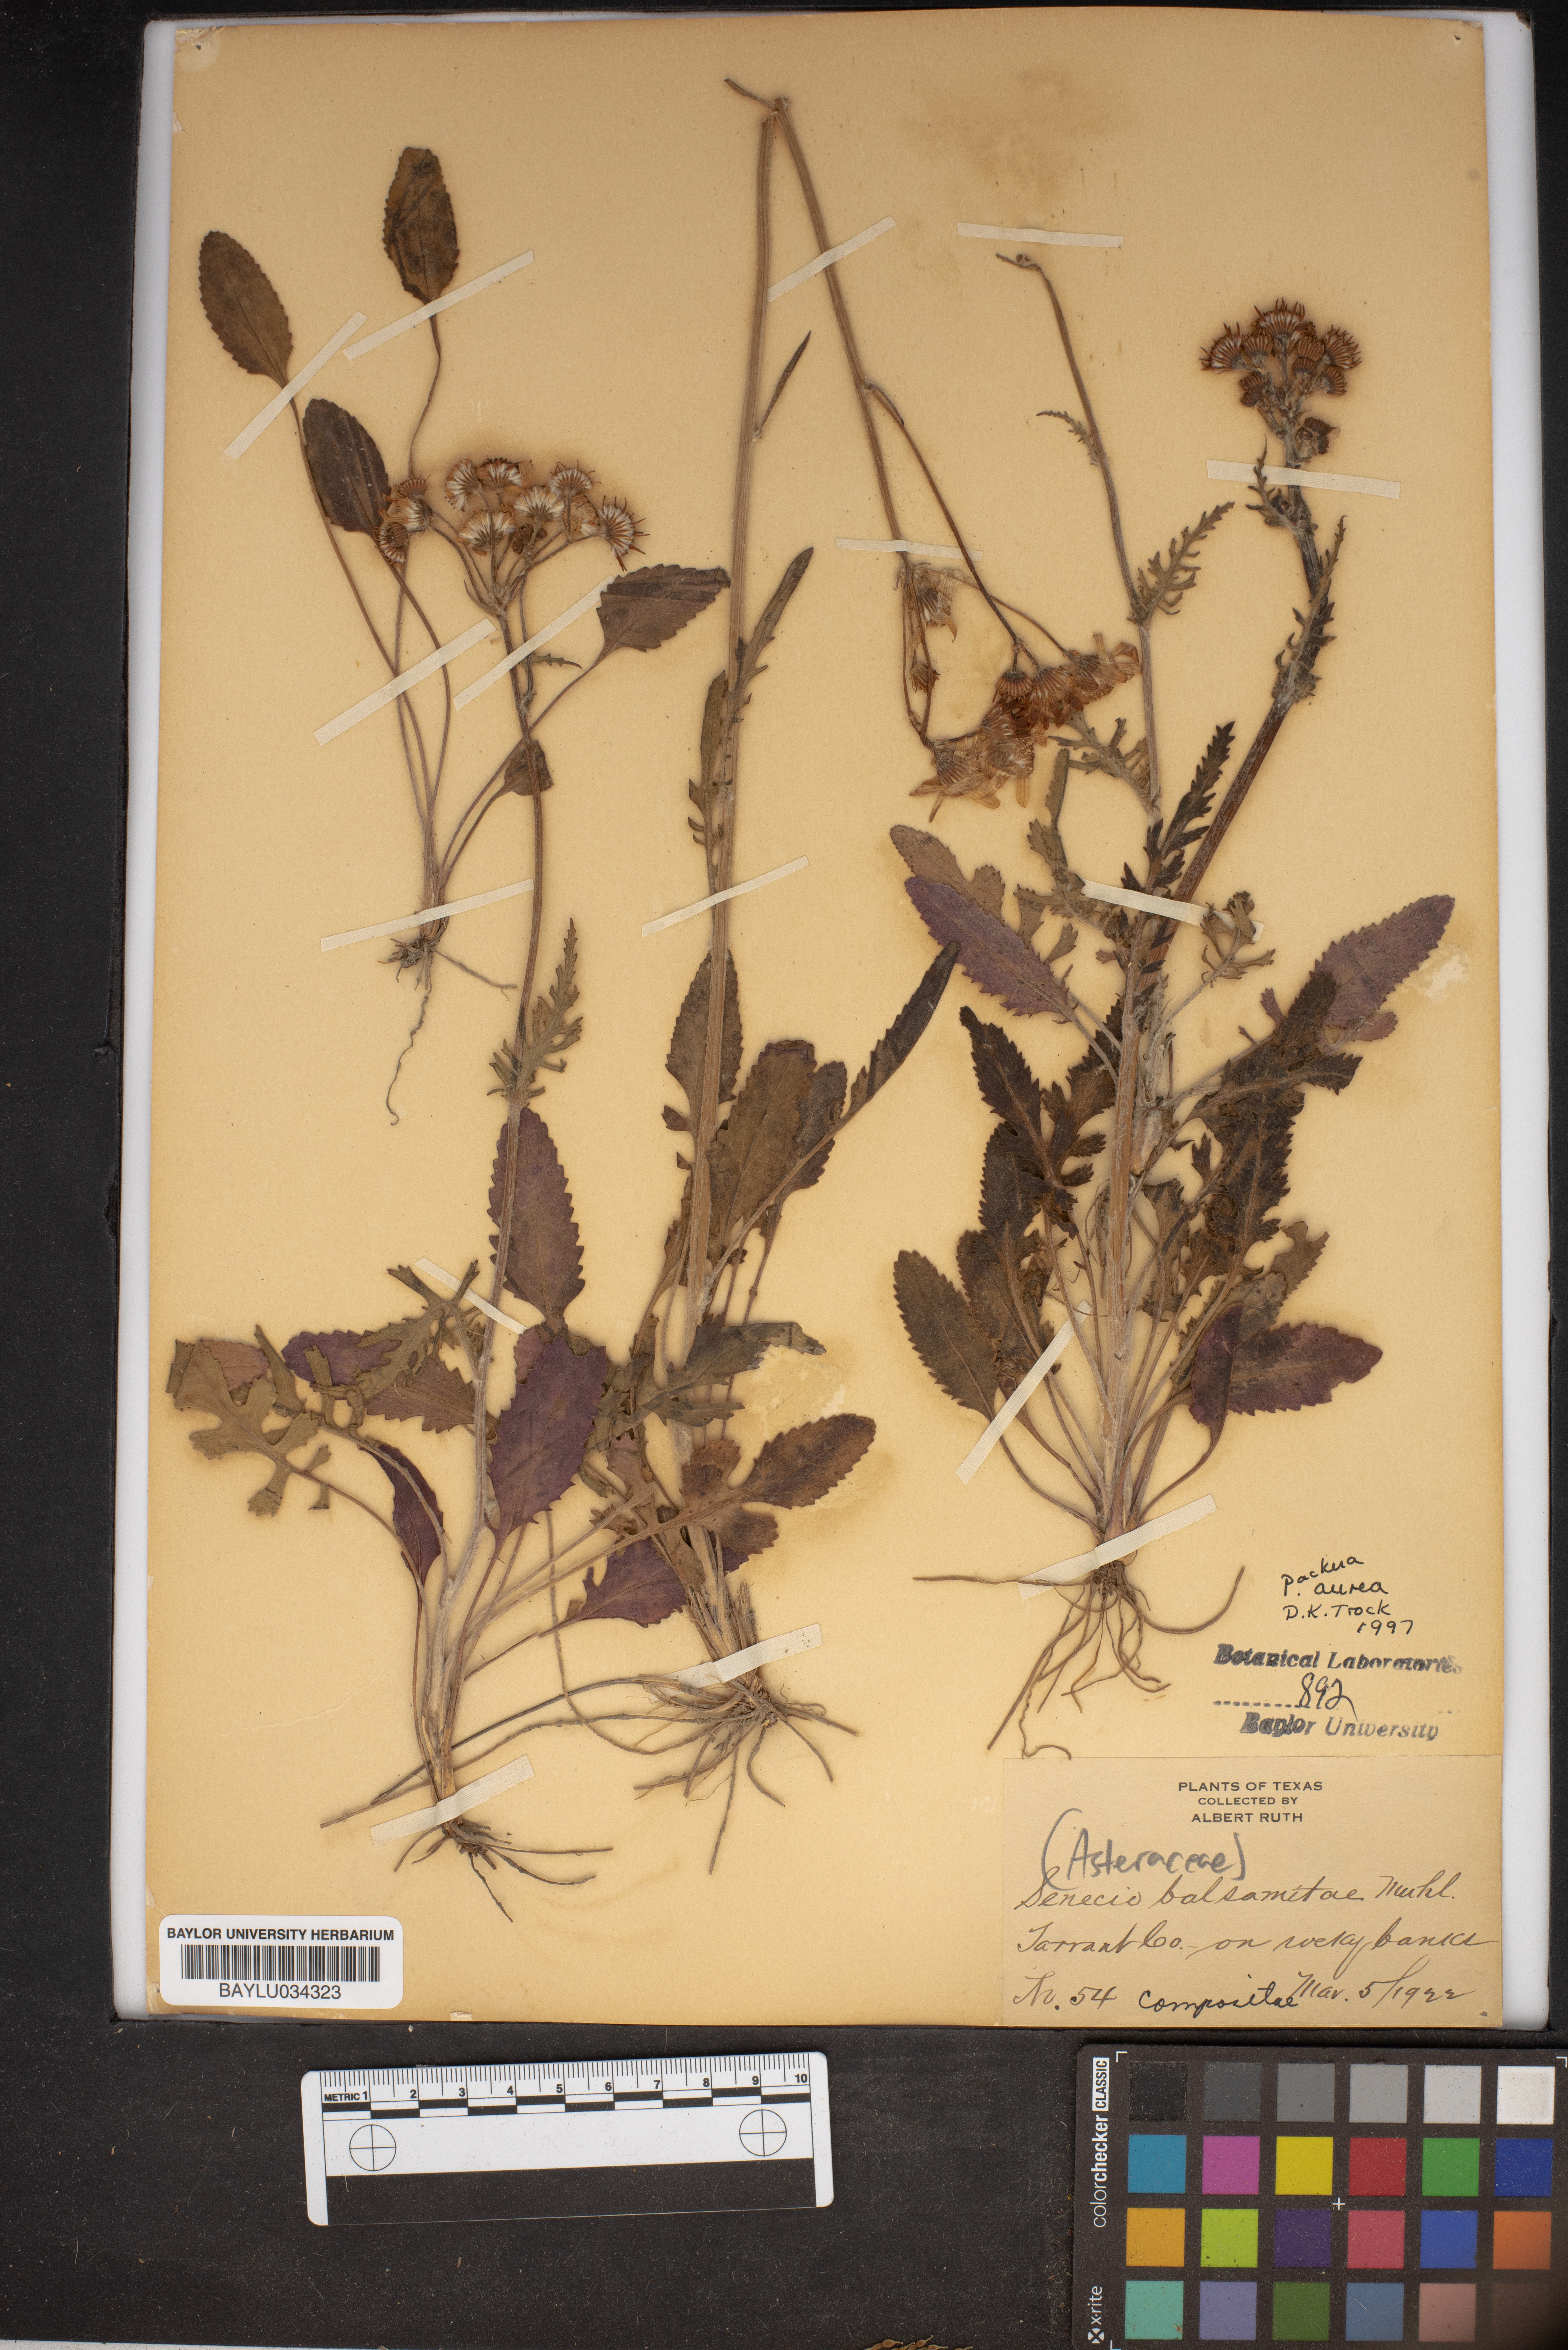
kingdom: Plantae
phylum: Tracheophyta
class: Magnoliopsida
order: Asterales
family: Asteraceae
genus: Senecio
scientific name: Senecio balsamitae
